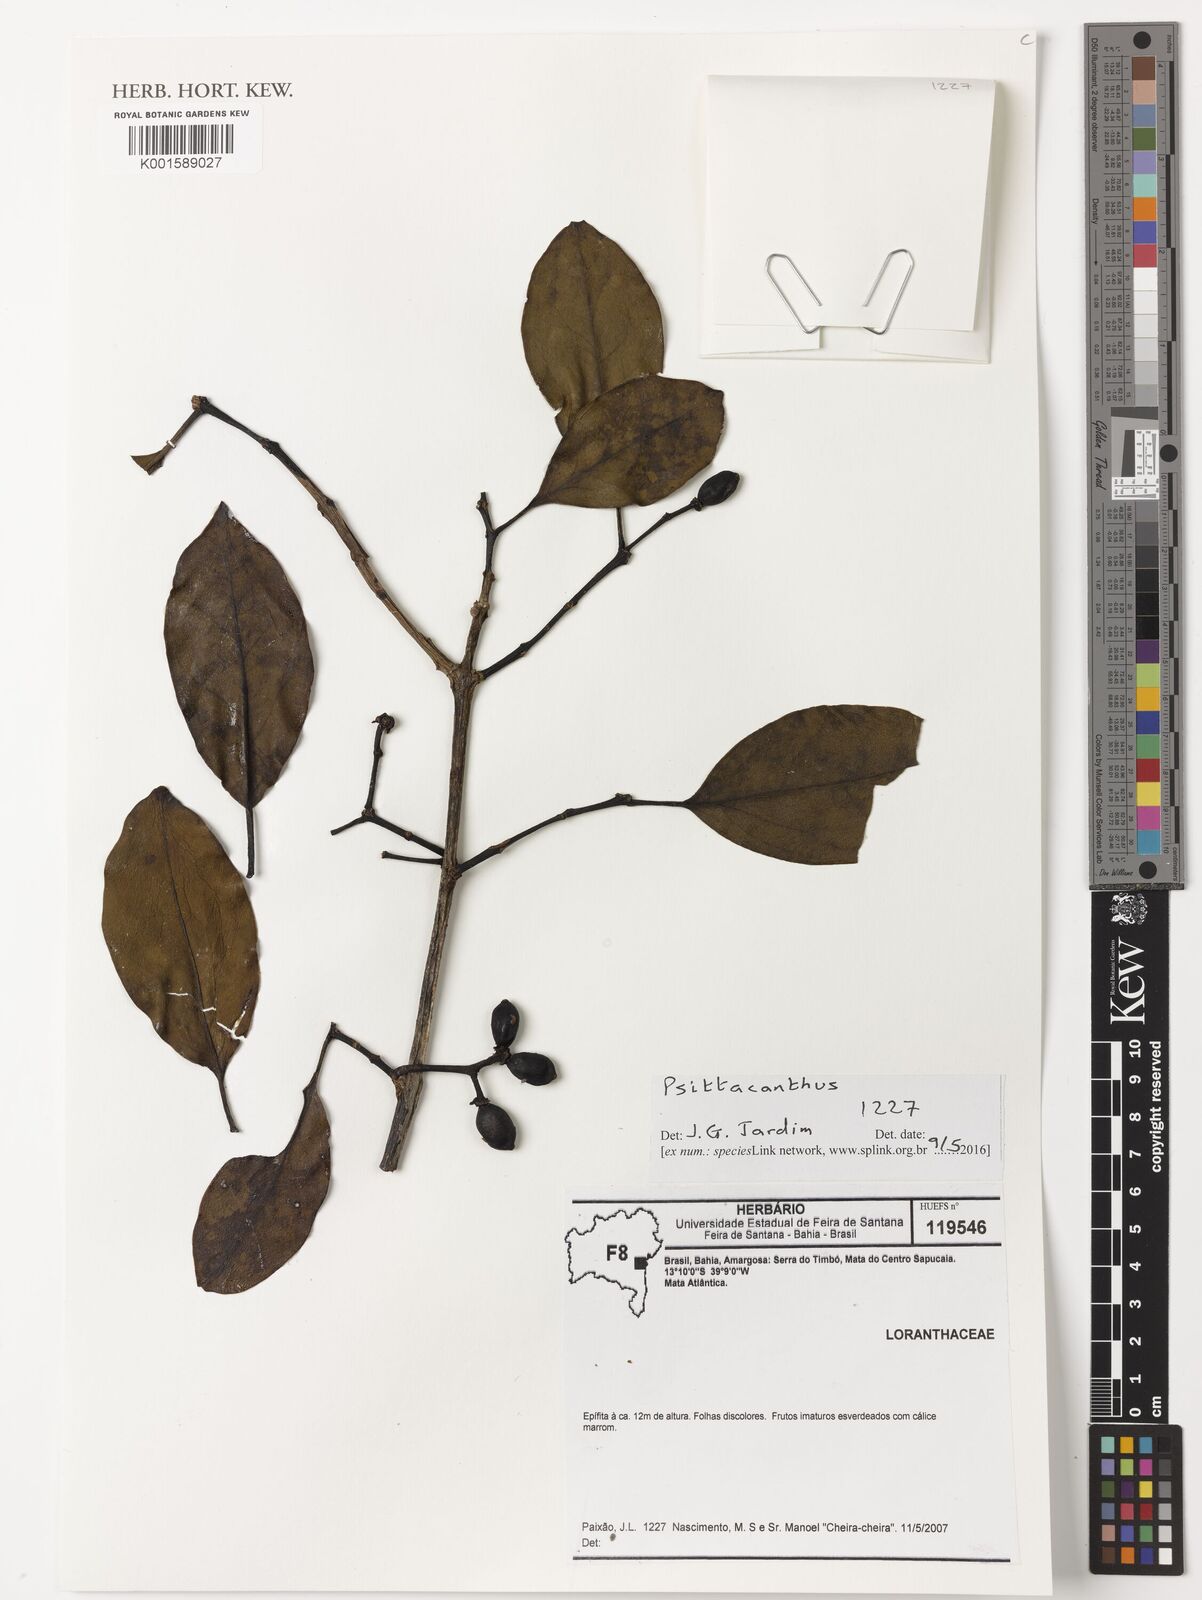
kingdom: Plantae
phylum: Tracheophyta
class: Magnoliopsida
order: Santalales
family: Loranthaceae
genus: Psittacanthus
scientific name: Psittacanthus
